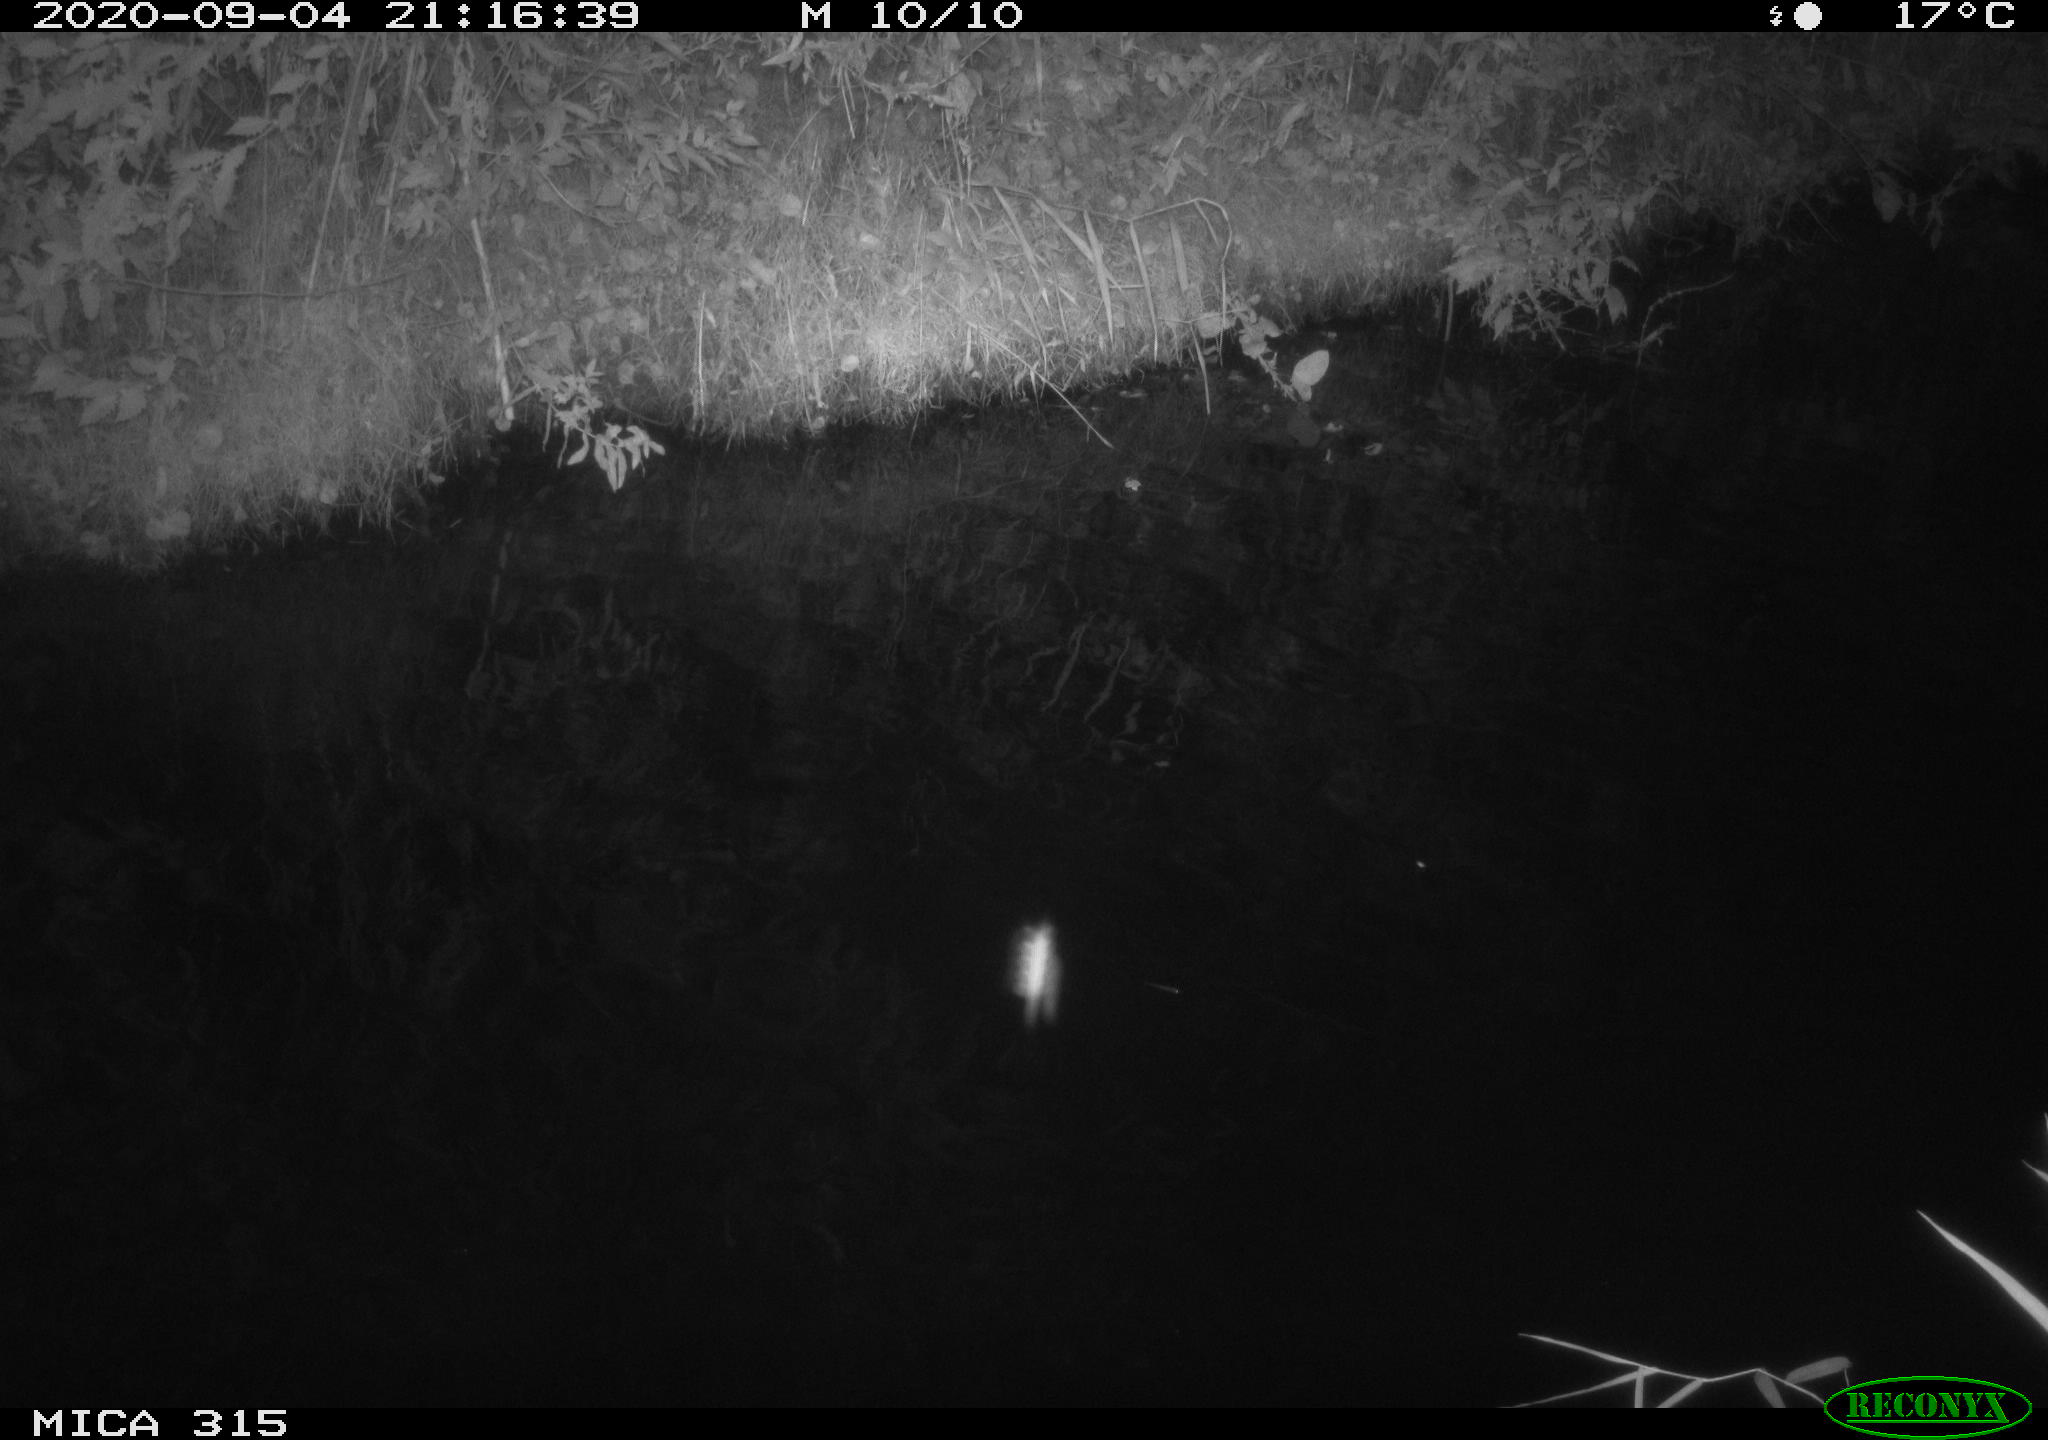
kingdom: Animalia
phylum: Chordata
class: Aves
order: Anseriformes
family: Anatidae
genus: Anas
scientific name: Anas platyrhynchos
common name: Mallard
